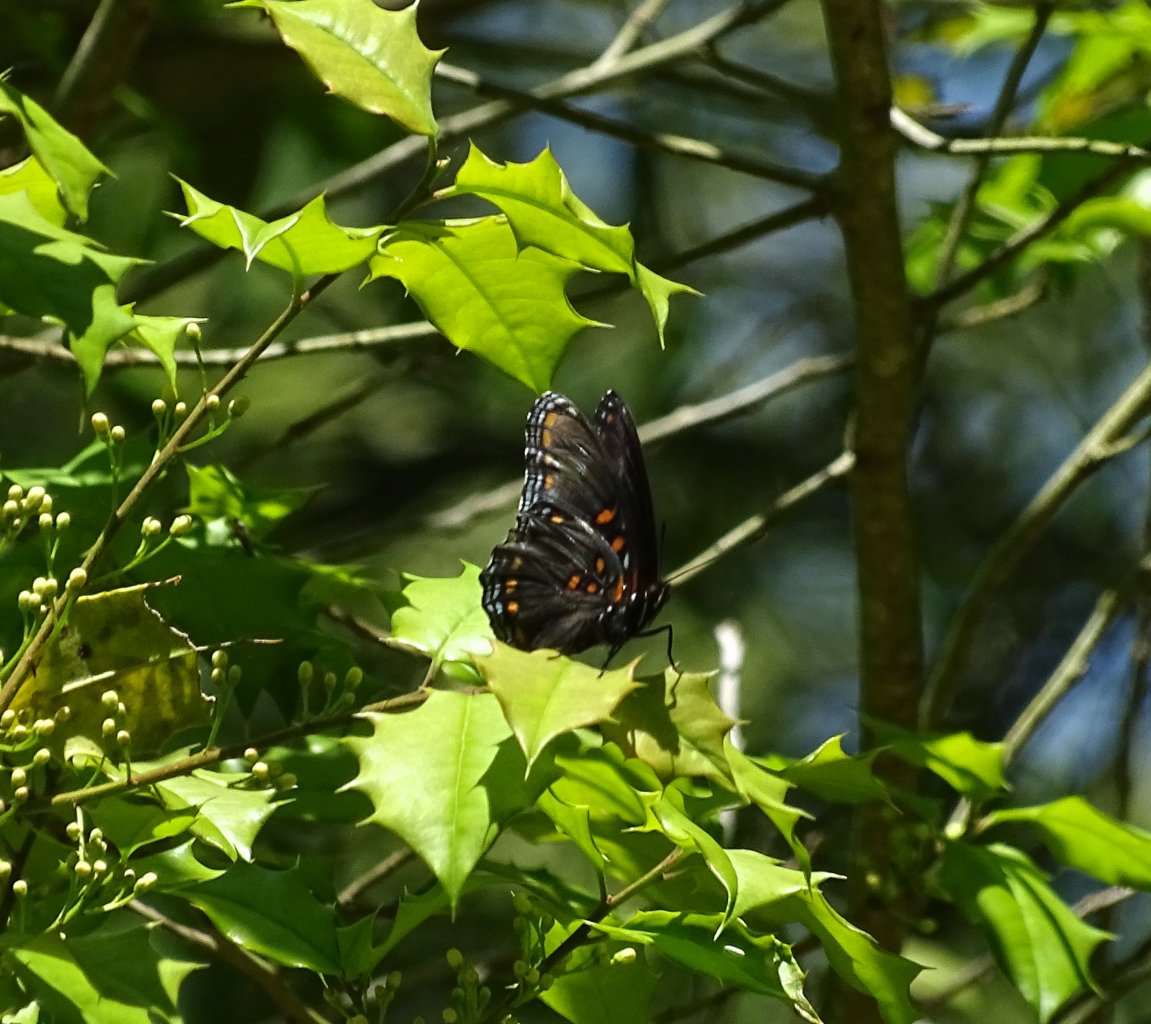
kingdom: Animalia
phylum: Arthropoda
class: Insecta
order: Lepidoptera
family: Nymphalidae
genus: Limenitis
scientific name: Limenitis astyanax
